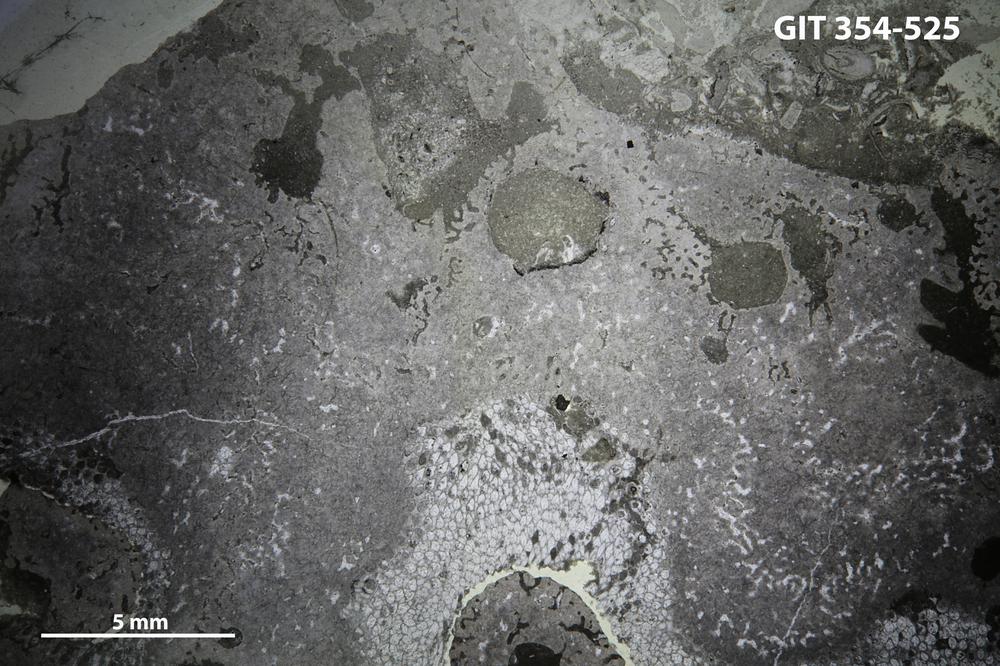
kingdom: Animalia
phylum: Porifera
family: Stromatoporidae
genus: Eostromatopora
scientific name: Eostromatopora
